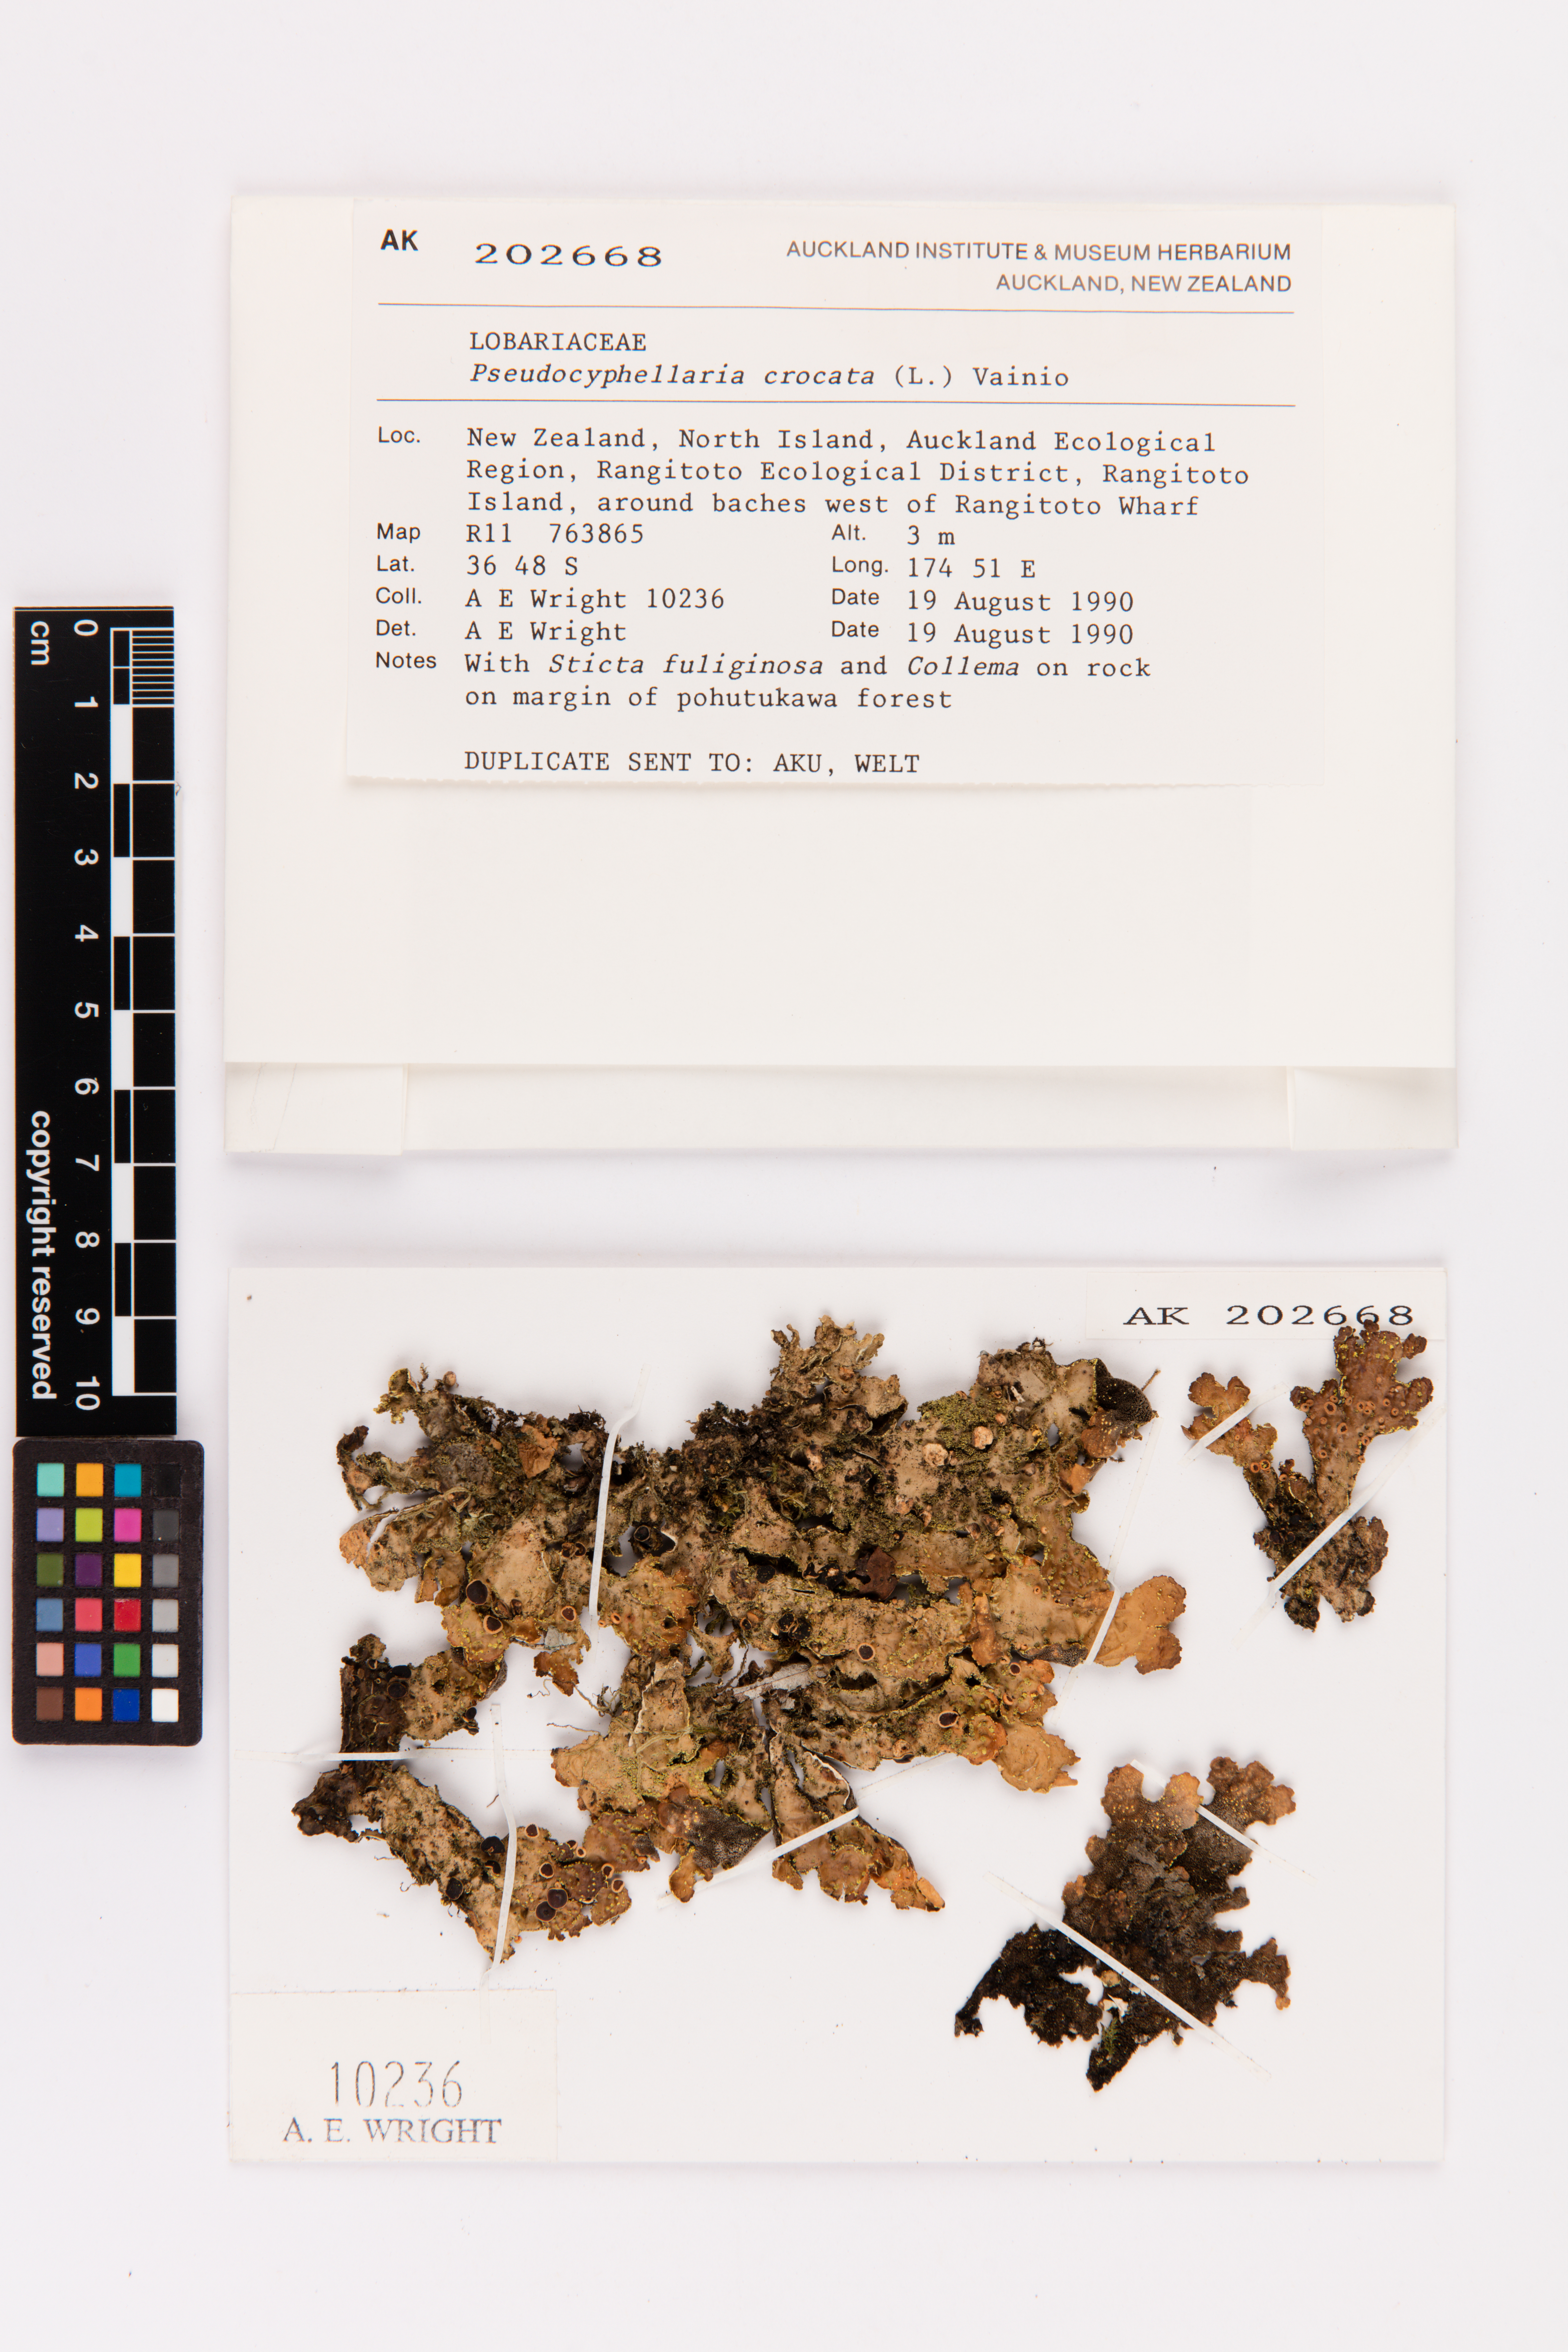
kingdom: Fungi
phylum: Ascomycota
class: Lecanoromycetes
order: Peltigerales
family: Lobariaceae
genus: Pseudocyphellaria
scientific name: Pseudocyphellaria crocata
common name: Golden specklebelly
